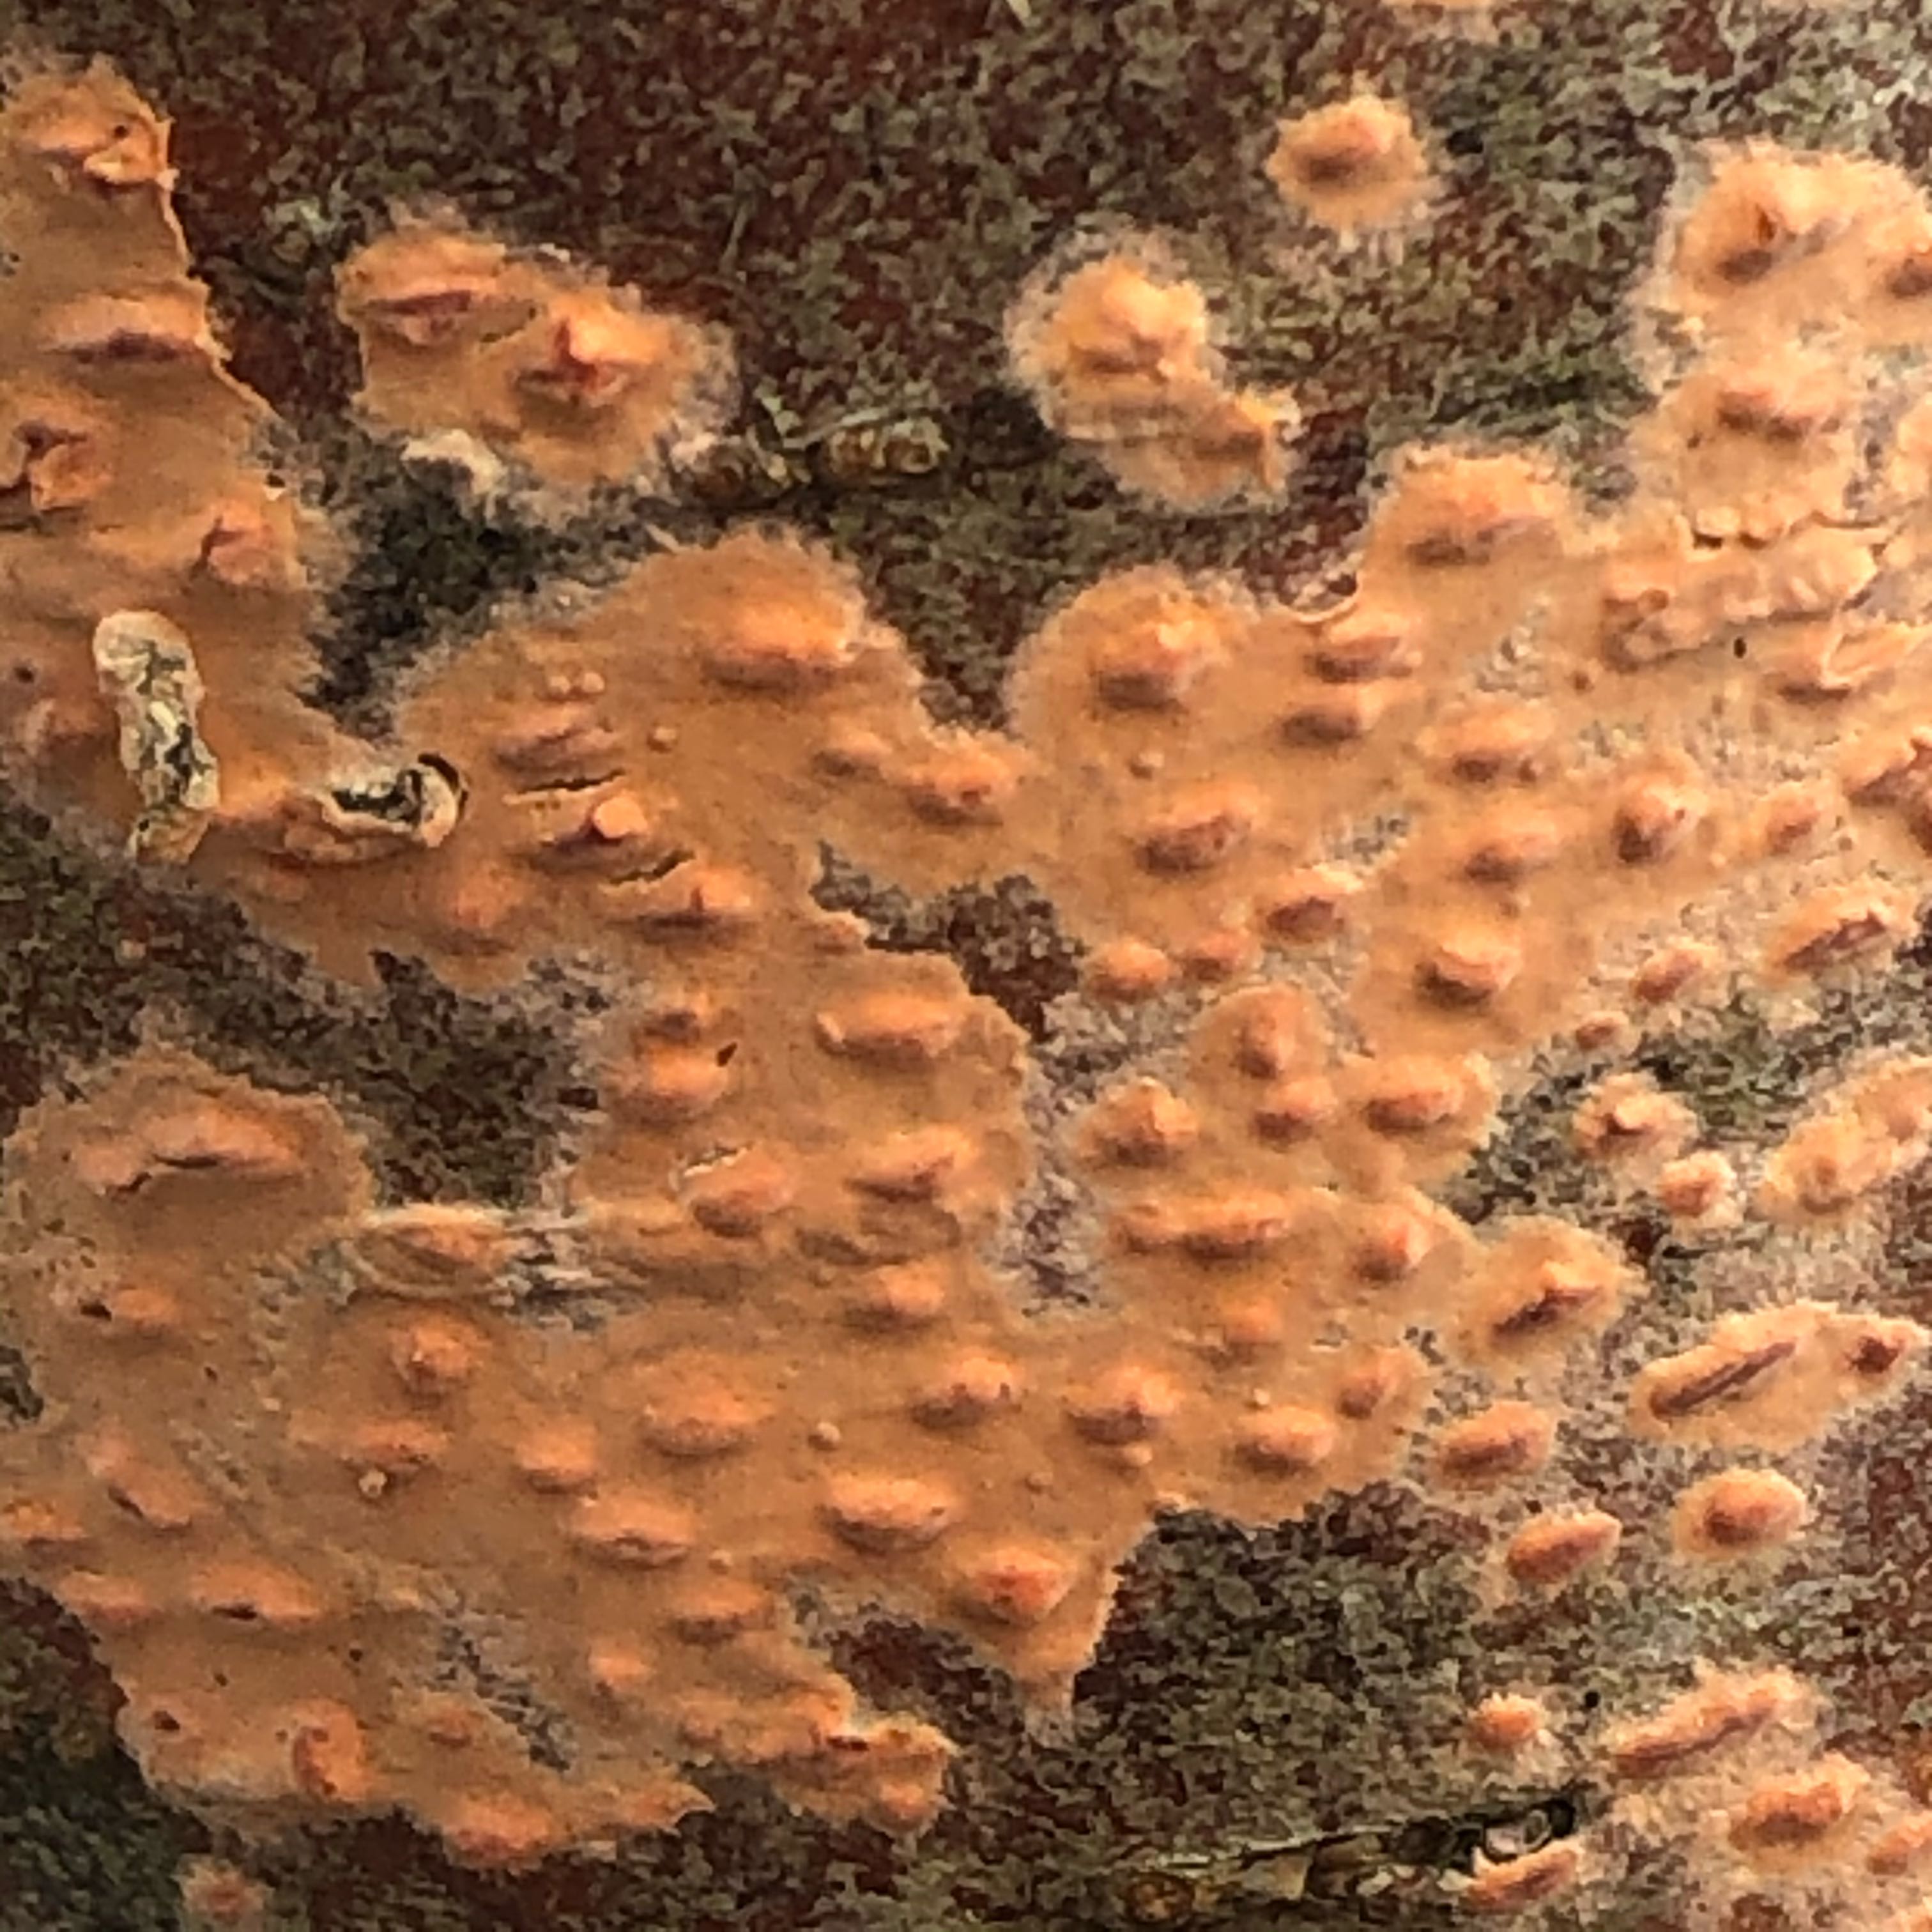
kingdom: Fungi
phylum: Basidiomycota
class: Agaricomycetes
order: Russulales
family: Peniophoraceae
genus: Peniophora
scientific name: Peniophora incarnata
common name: laksefarvet voksskind
